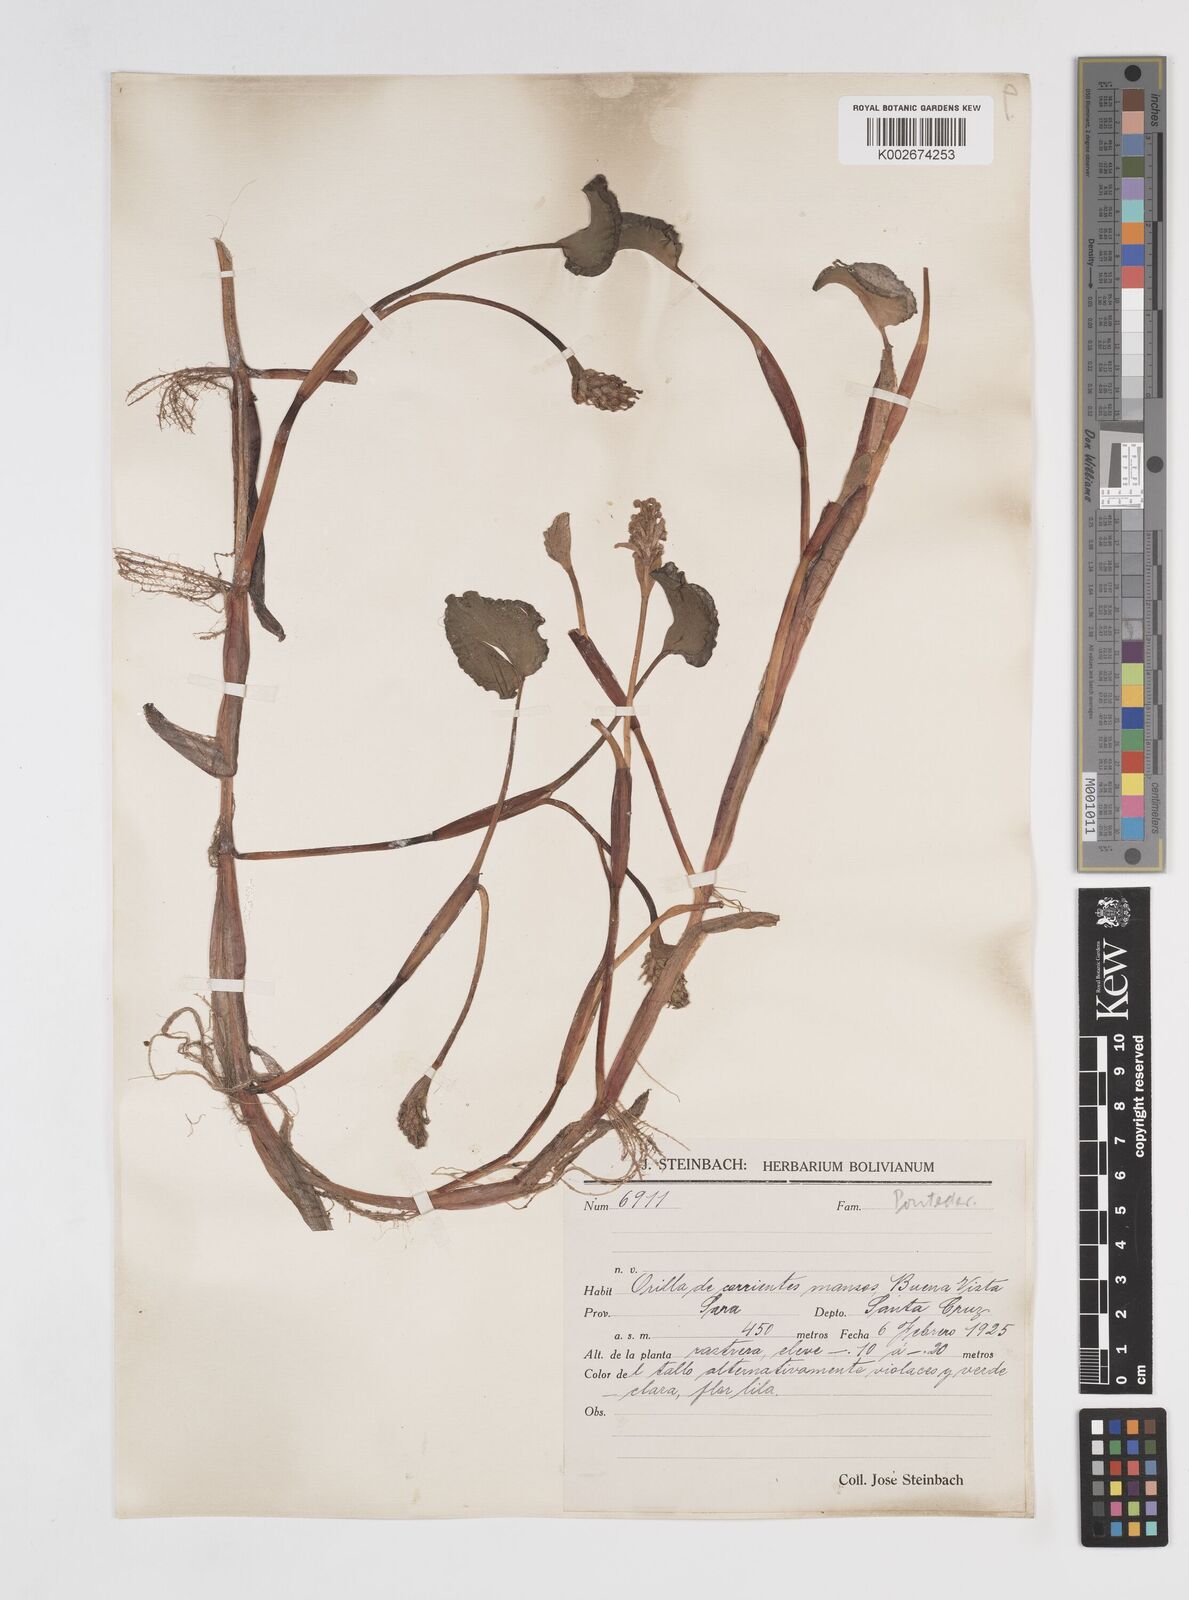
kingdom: Plantae
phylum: Tracheophyta
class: Liliopsida
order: Commelinales
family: Pontederiaceae
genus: Pontederia
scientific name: Pontederia rotundifolia
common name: Tropical pickerel-weed
